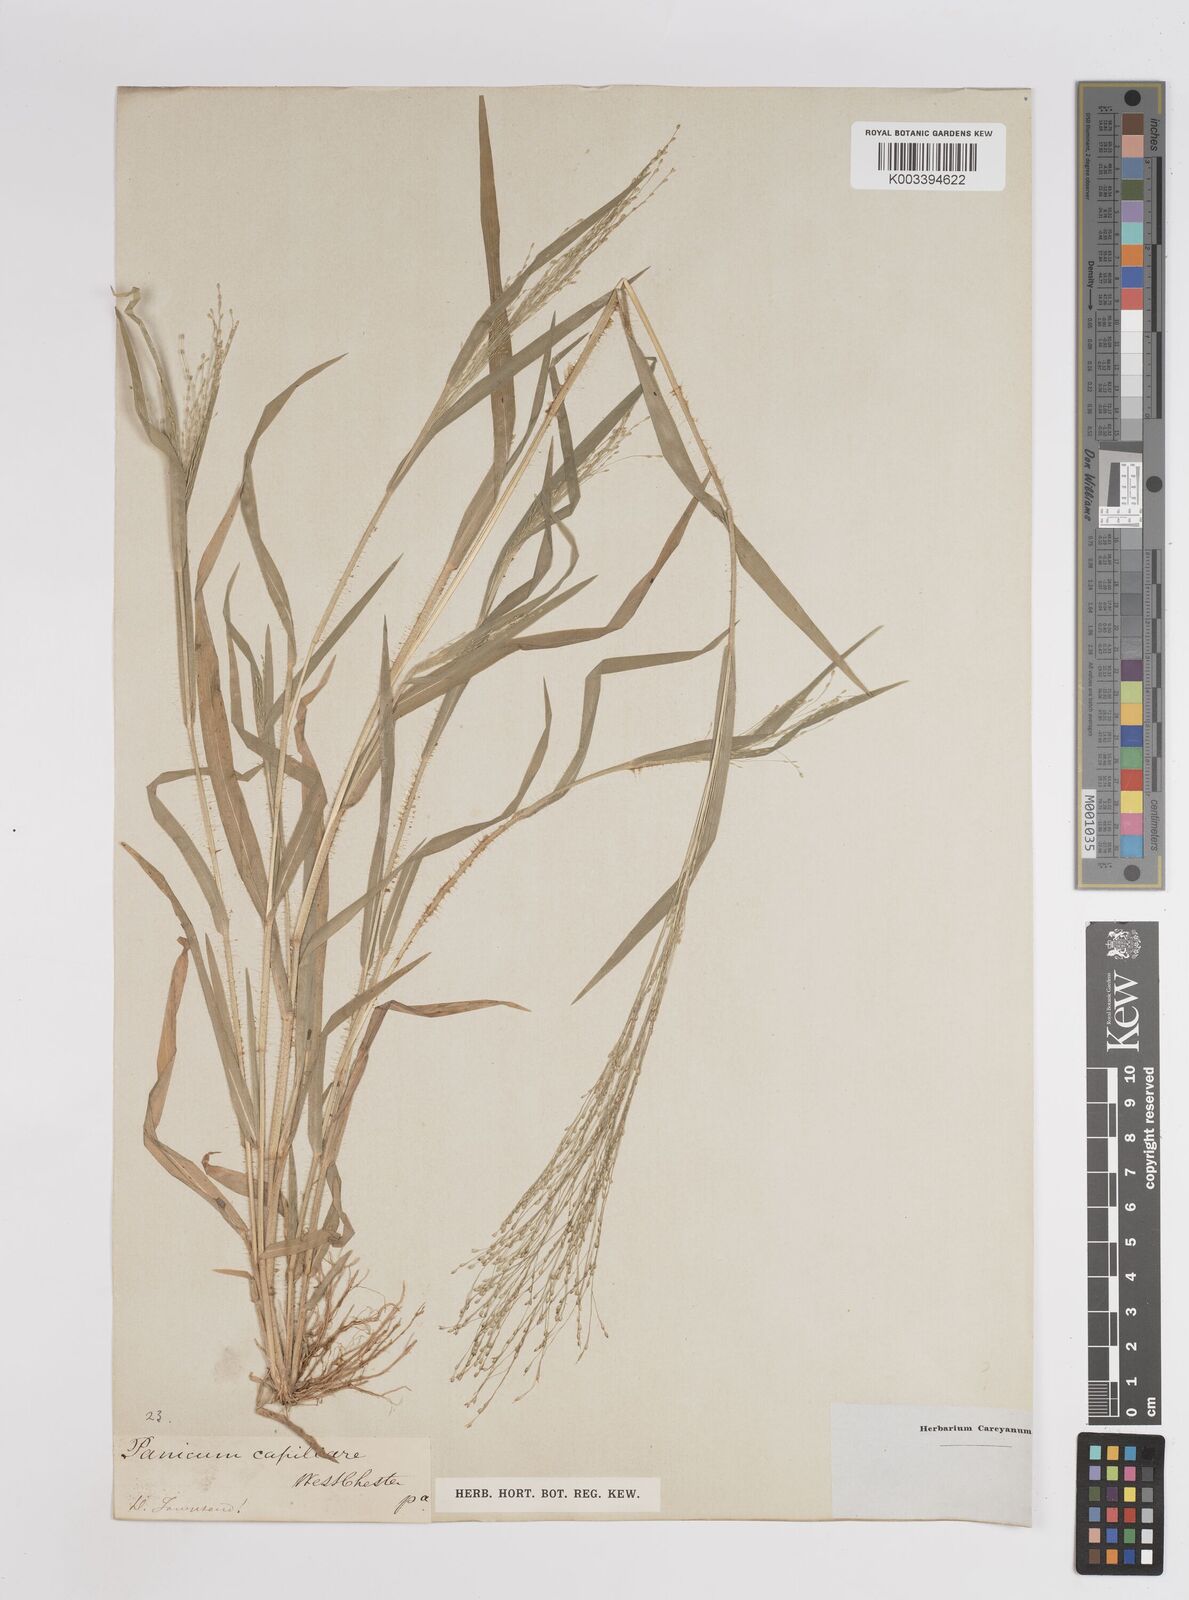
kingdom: Plantae
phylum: Tracheophyta
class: Liliopsida
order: Poales
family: Poaceae
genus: Panicum
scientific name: Panicum capillare
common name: Witch-grass
